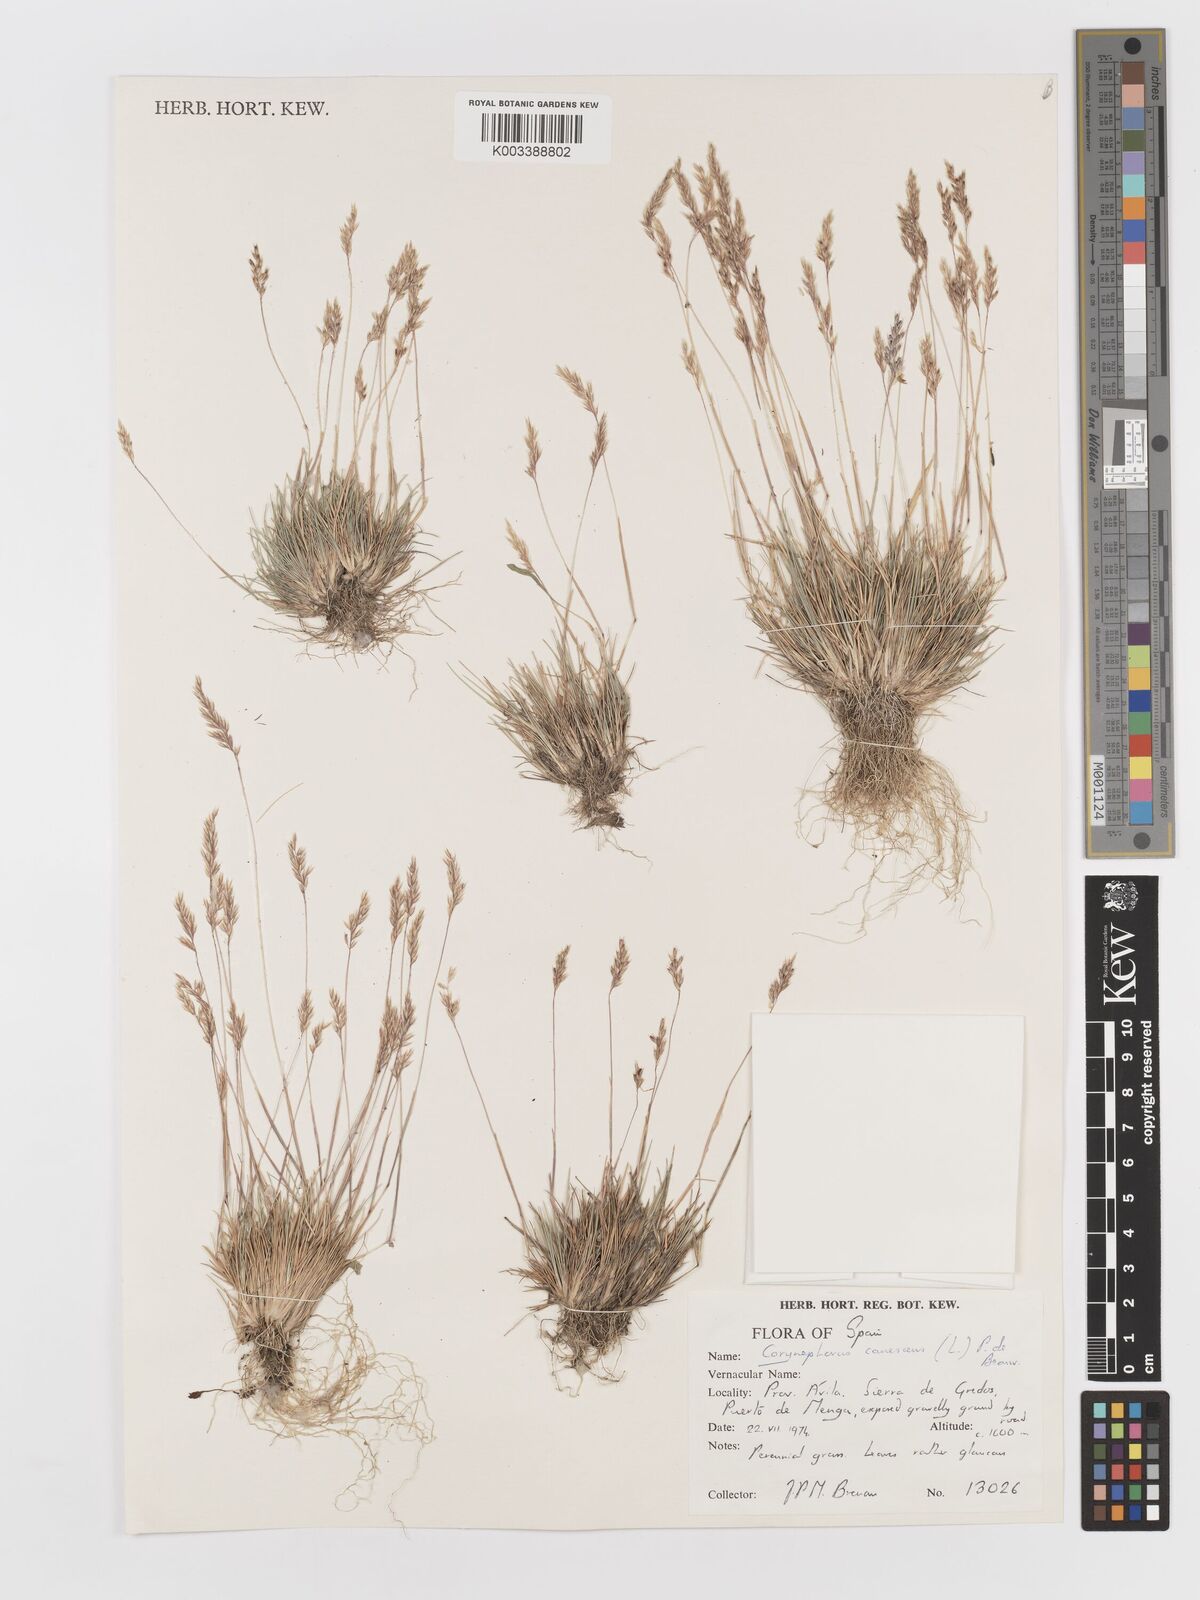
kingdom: Plantae
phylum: Tracheophyta
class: Liliopsida
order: Poales
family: Poaceae
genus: Corynephorus
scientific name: Corynephorus canescens
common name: Grey hair-grass
